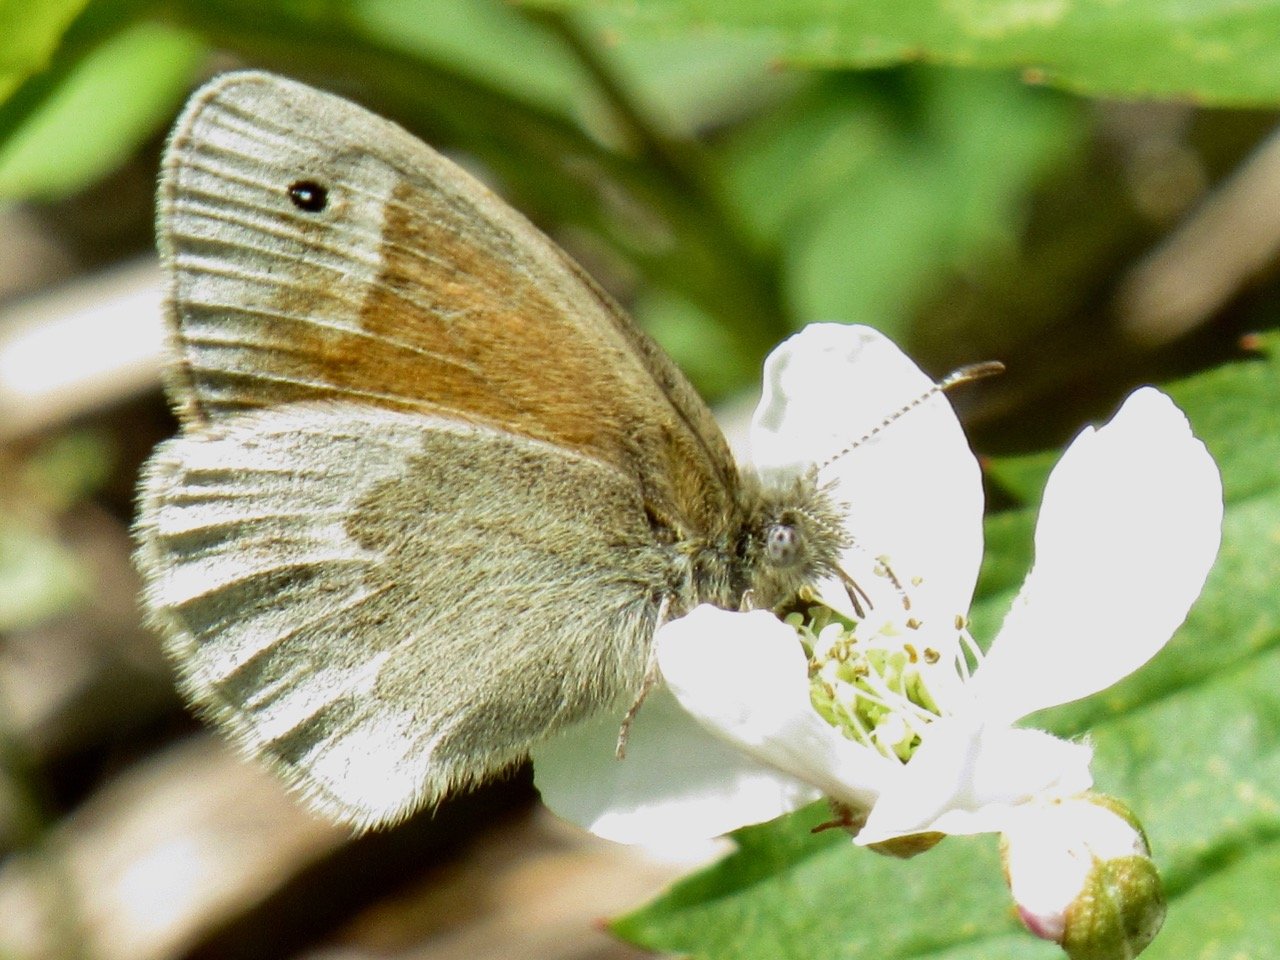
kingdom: Animalia
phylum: Arthropoda
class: Insecta
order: Lepidoptera
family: Nymphalidae
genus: Coenonympha
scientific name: Coenonympha tullia
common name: Large Heath
